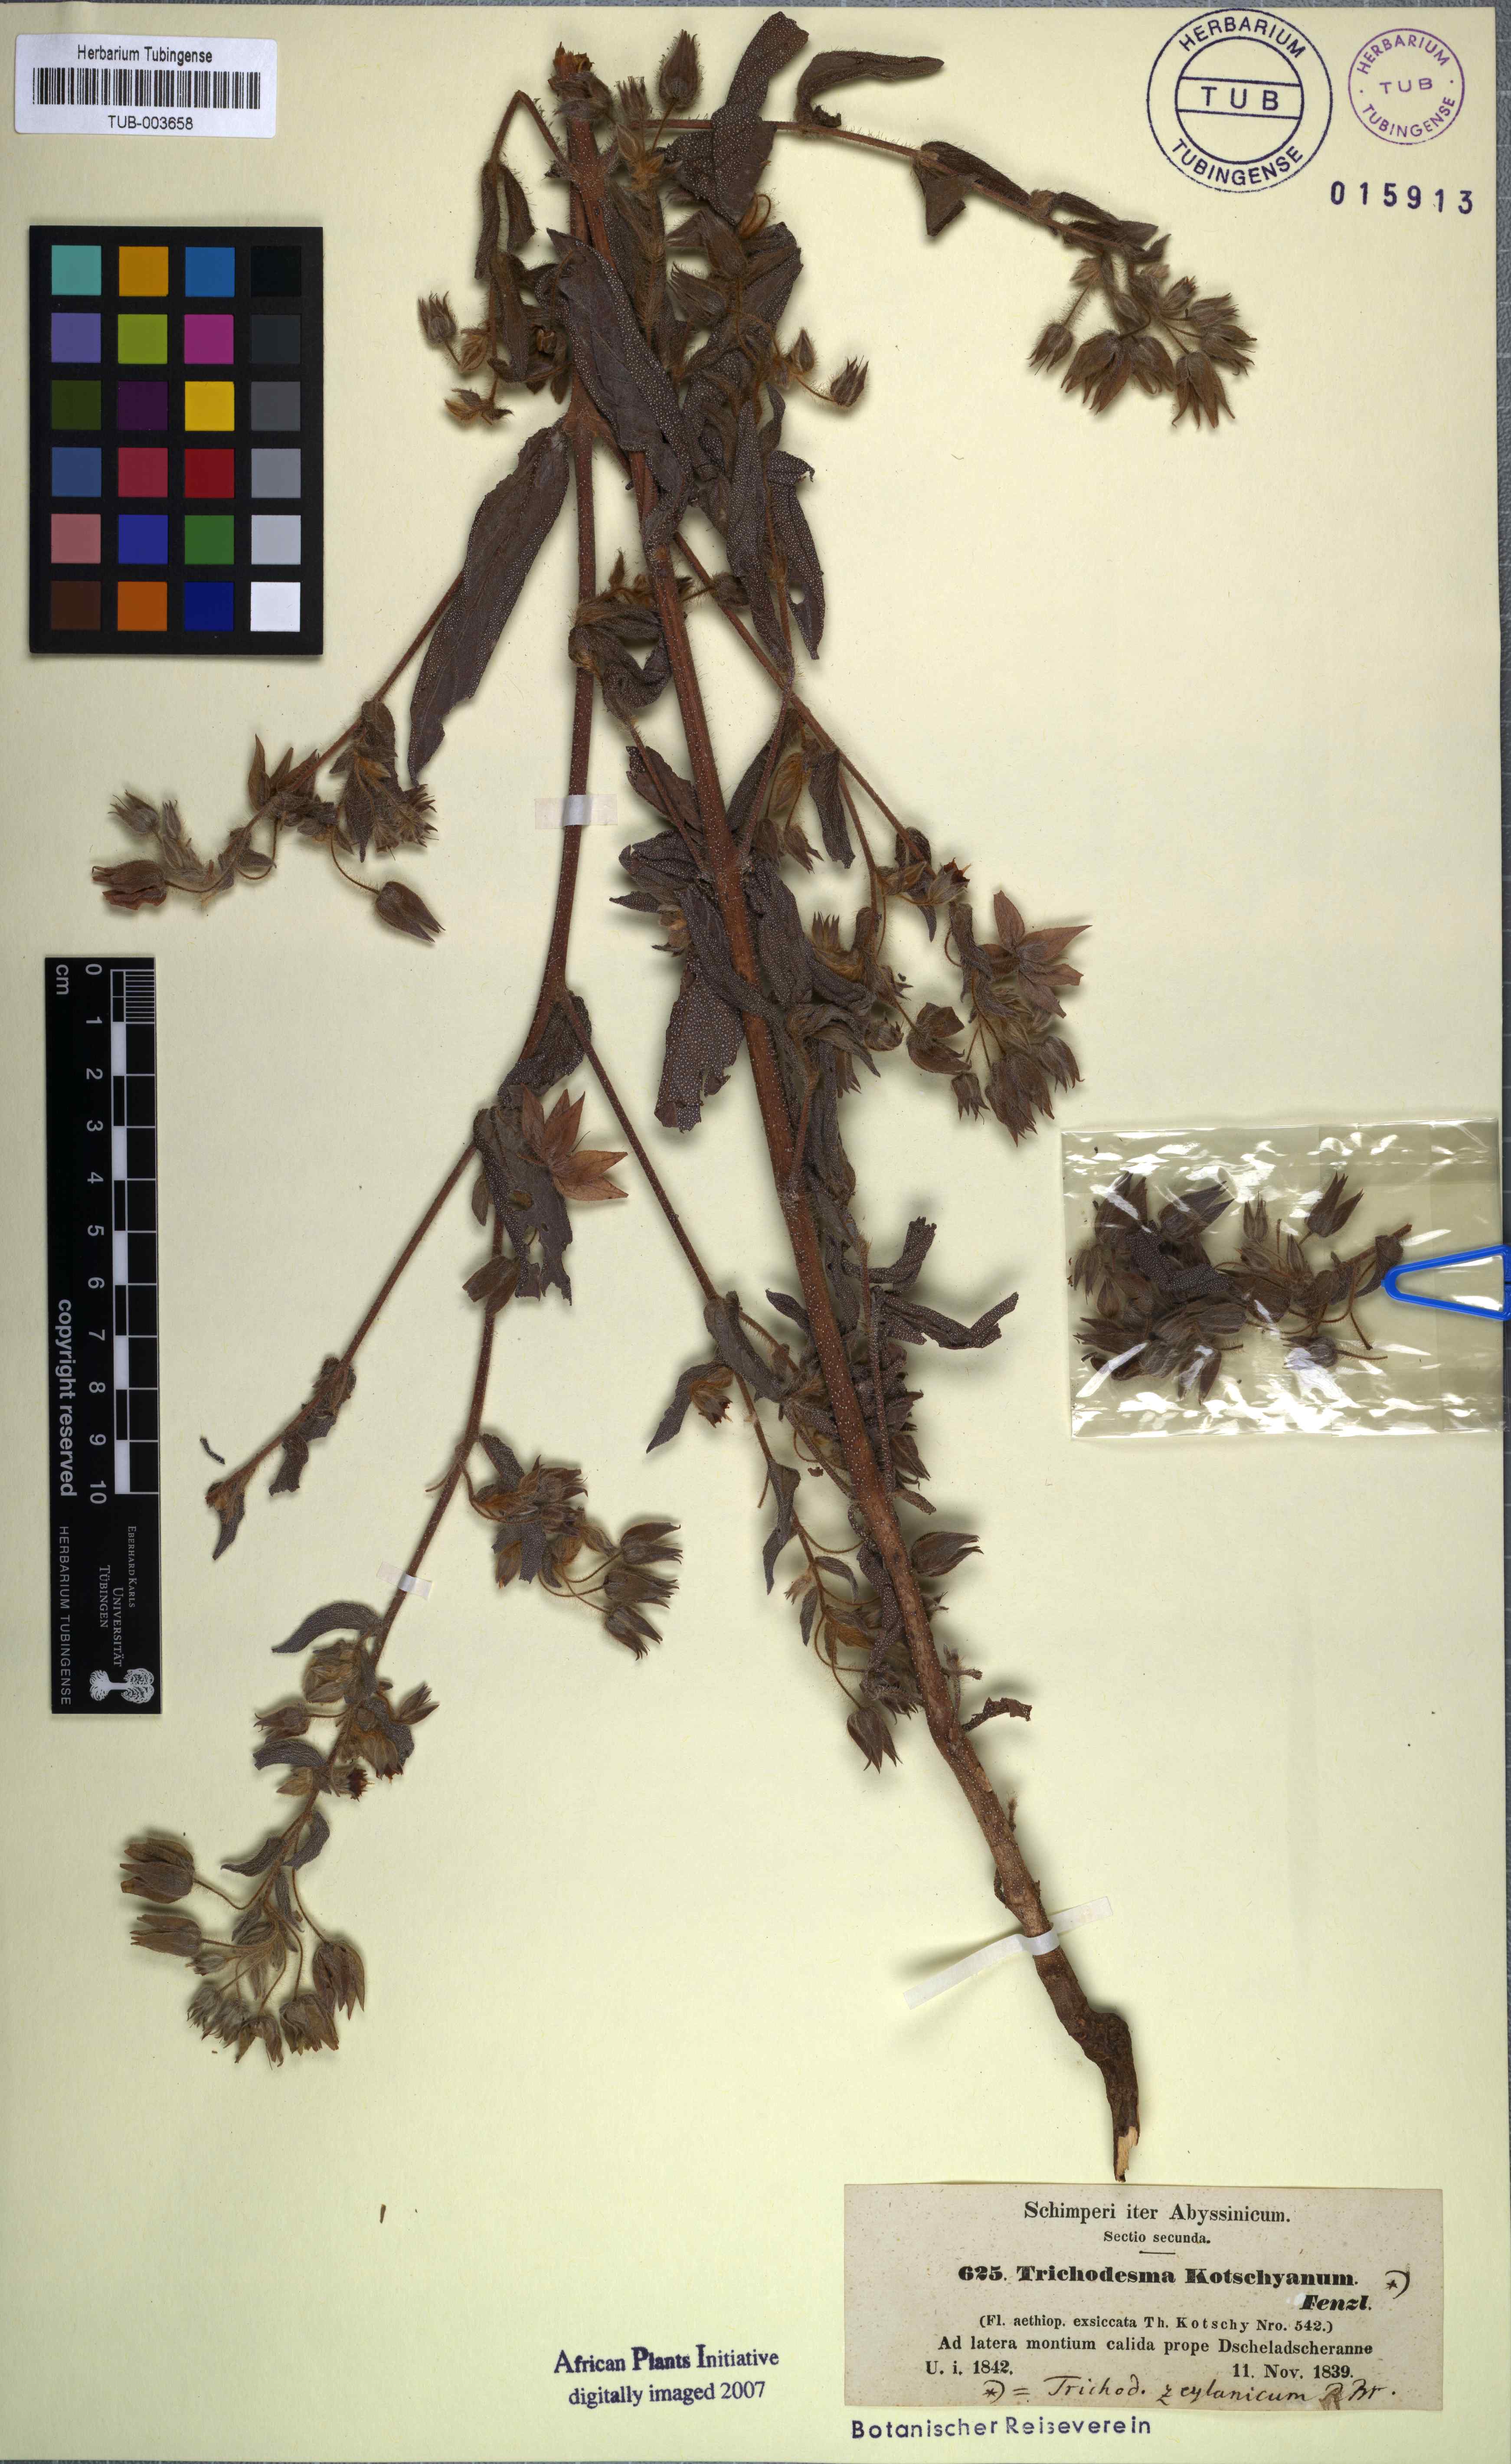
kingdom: Plantae
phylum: Tracheophyta
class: Magnoliopsida
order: Boraginales
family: Boraginaceae
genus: Trichodesma
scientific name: Trichodesma zeylanicum
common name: Camelbush
